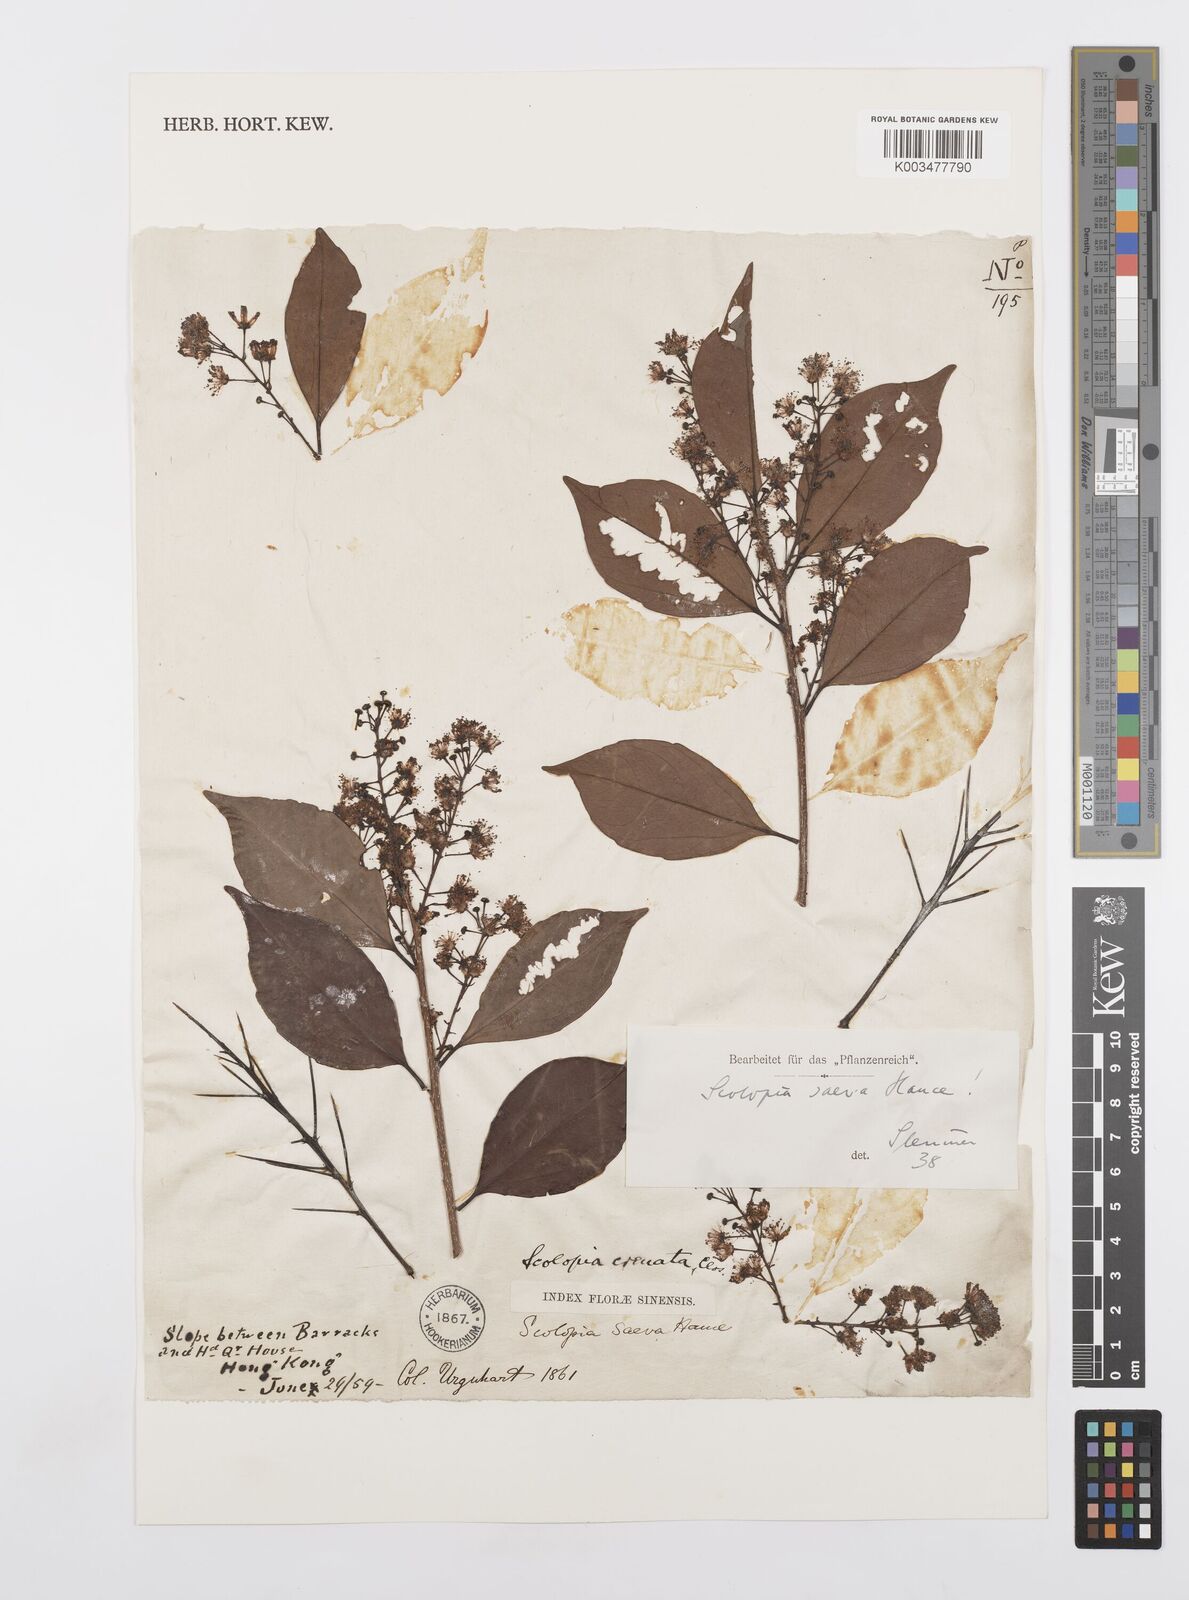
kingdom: Plantae
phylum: Tracheophyta
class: Magnoliopsida
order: Malpighiales
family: Salicaceae
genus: Scolopia
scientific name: Scolopia saeva
